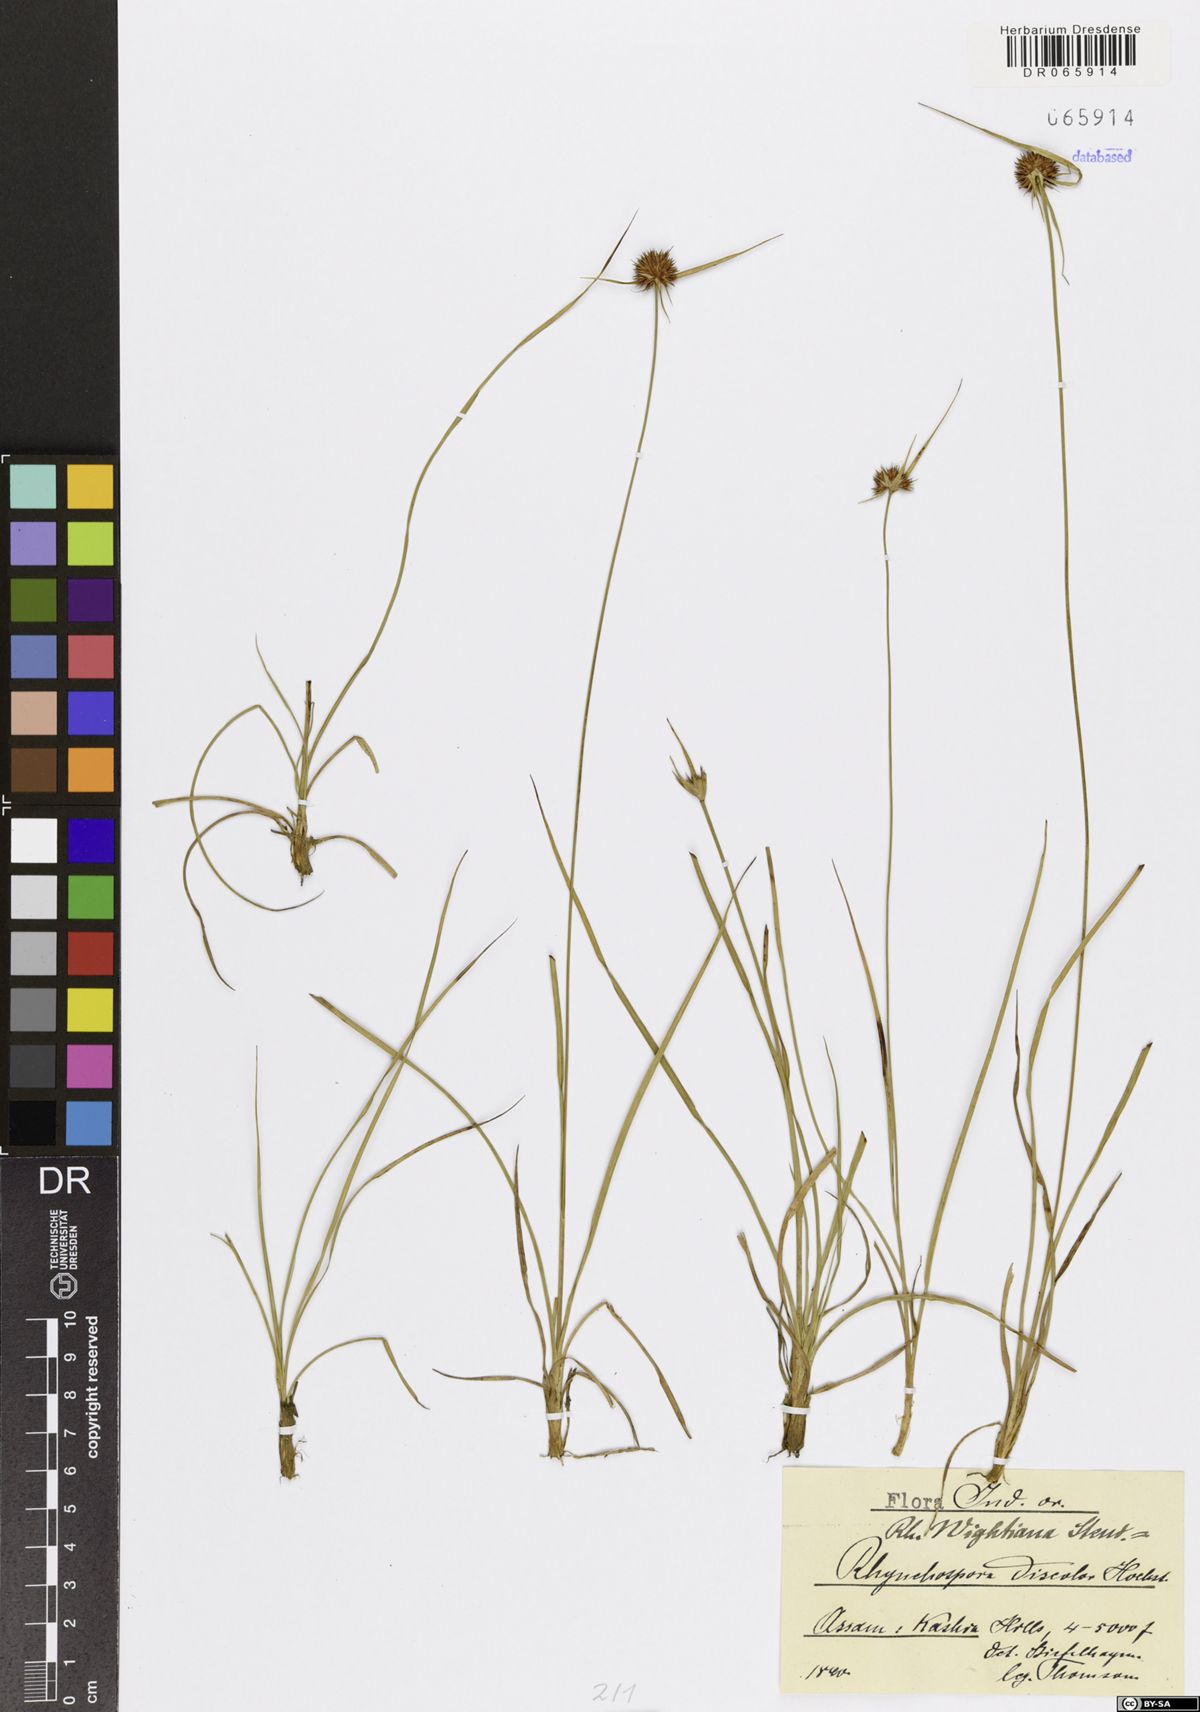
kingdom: Plantae
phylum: Tracheophyta
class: Liliopsida
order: Poales
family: Cyperaceae
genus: Rhynchospora
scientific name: Rhynchospora wightiana
